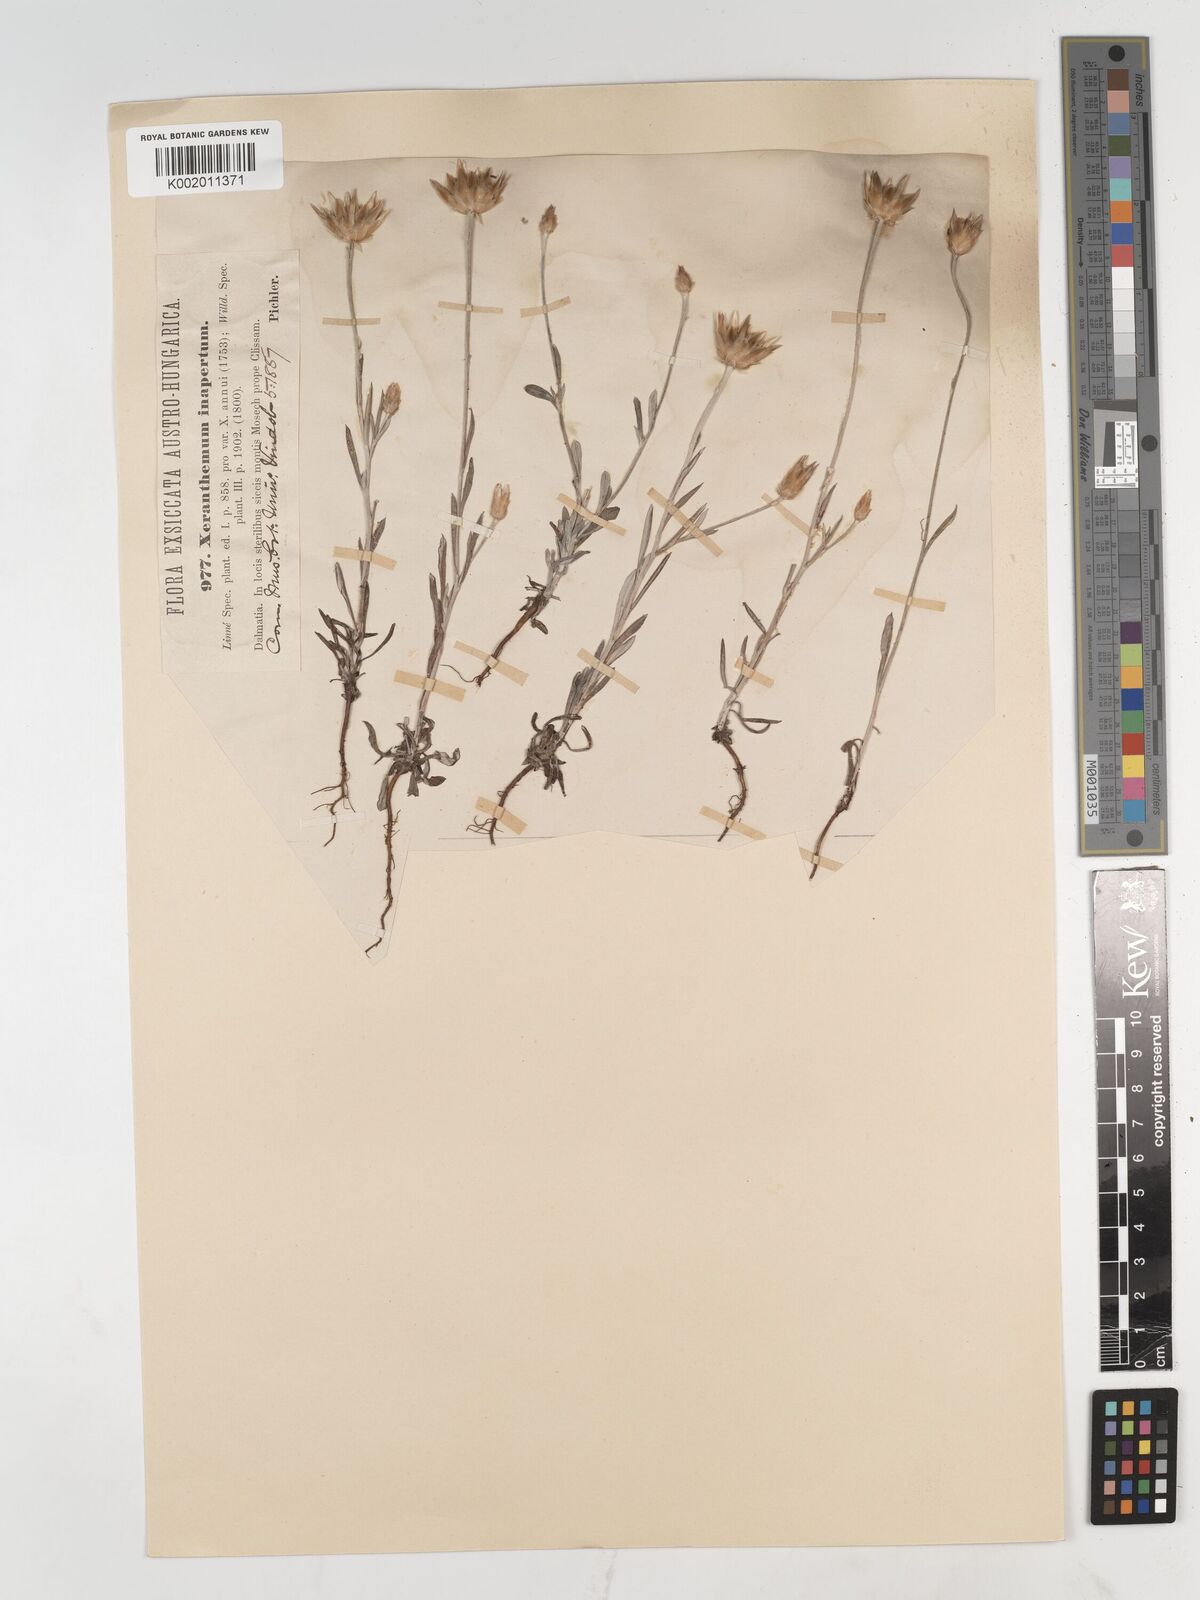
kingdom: Plantae
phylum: Tracheophyta
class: Magnoliopsida
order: Asterales
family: Asteraceae
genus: Xeranthemum
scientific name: Xeranthemum inapertum
